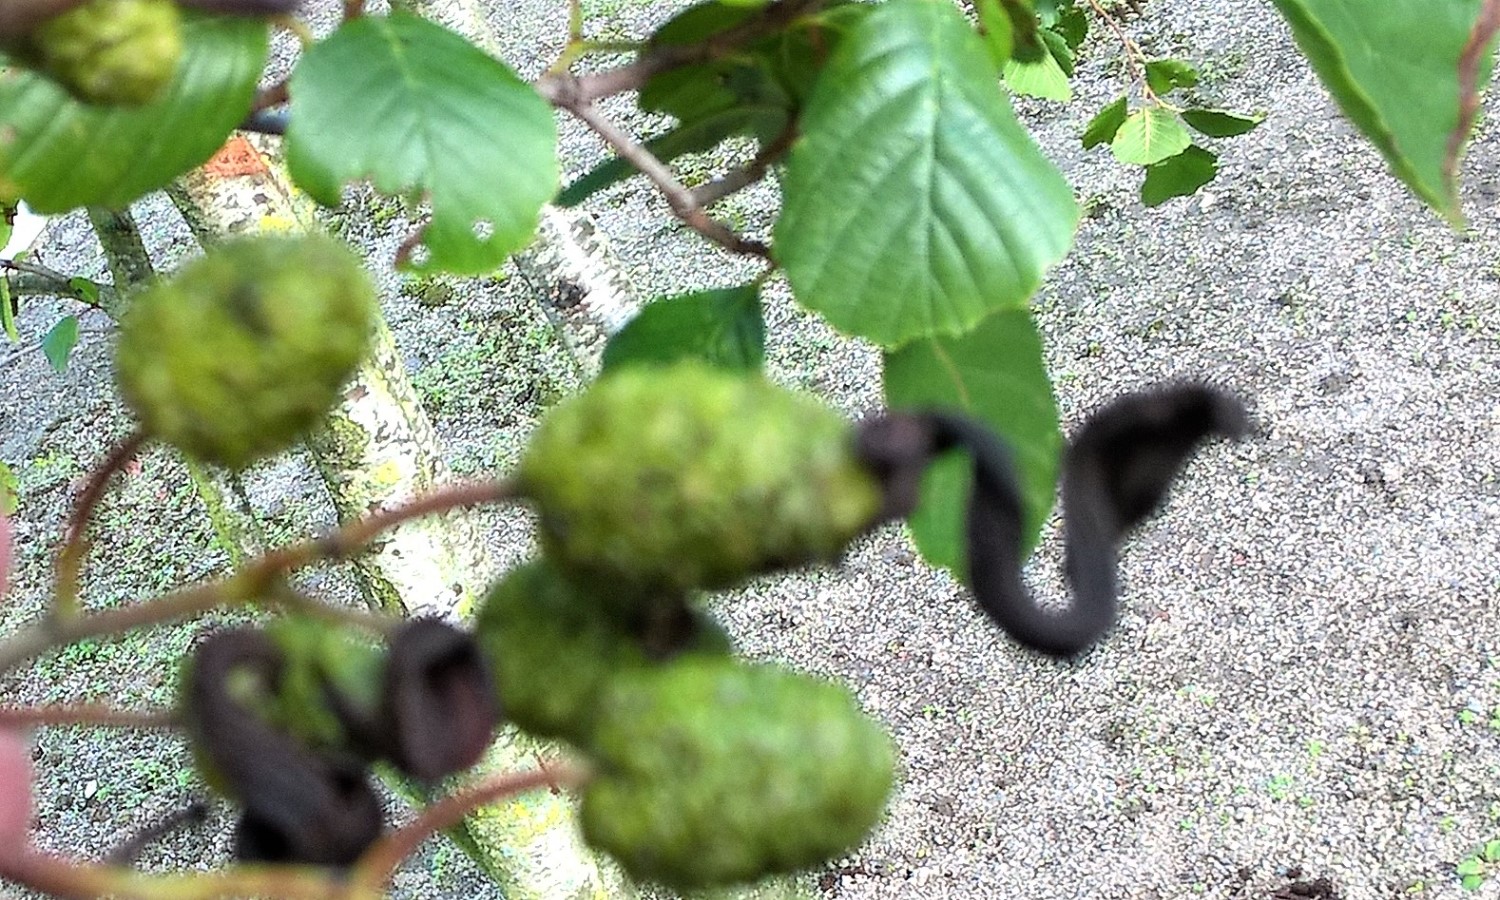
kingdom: Fungi
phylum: Ascomycota
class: Taphrinomycetes
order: Taphrinales
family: Taphrinaceae
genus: Taphrina
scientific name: Taphrina alni
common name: Alder tongue
